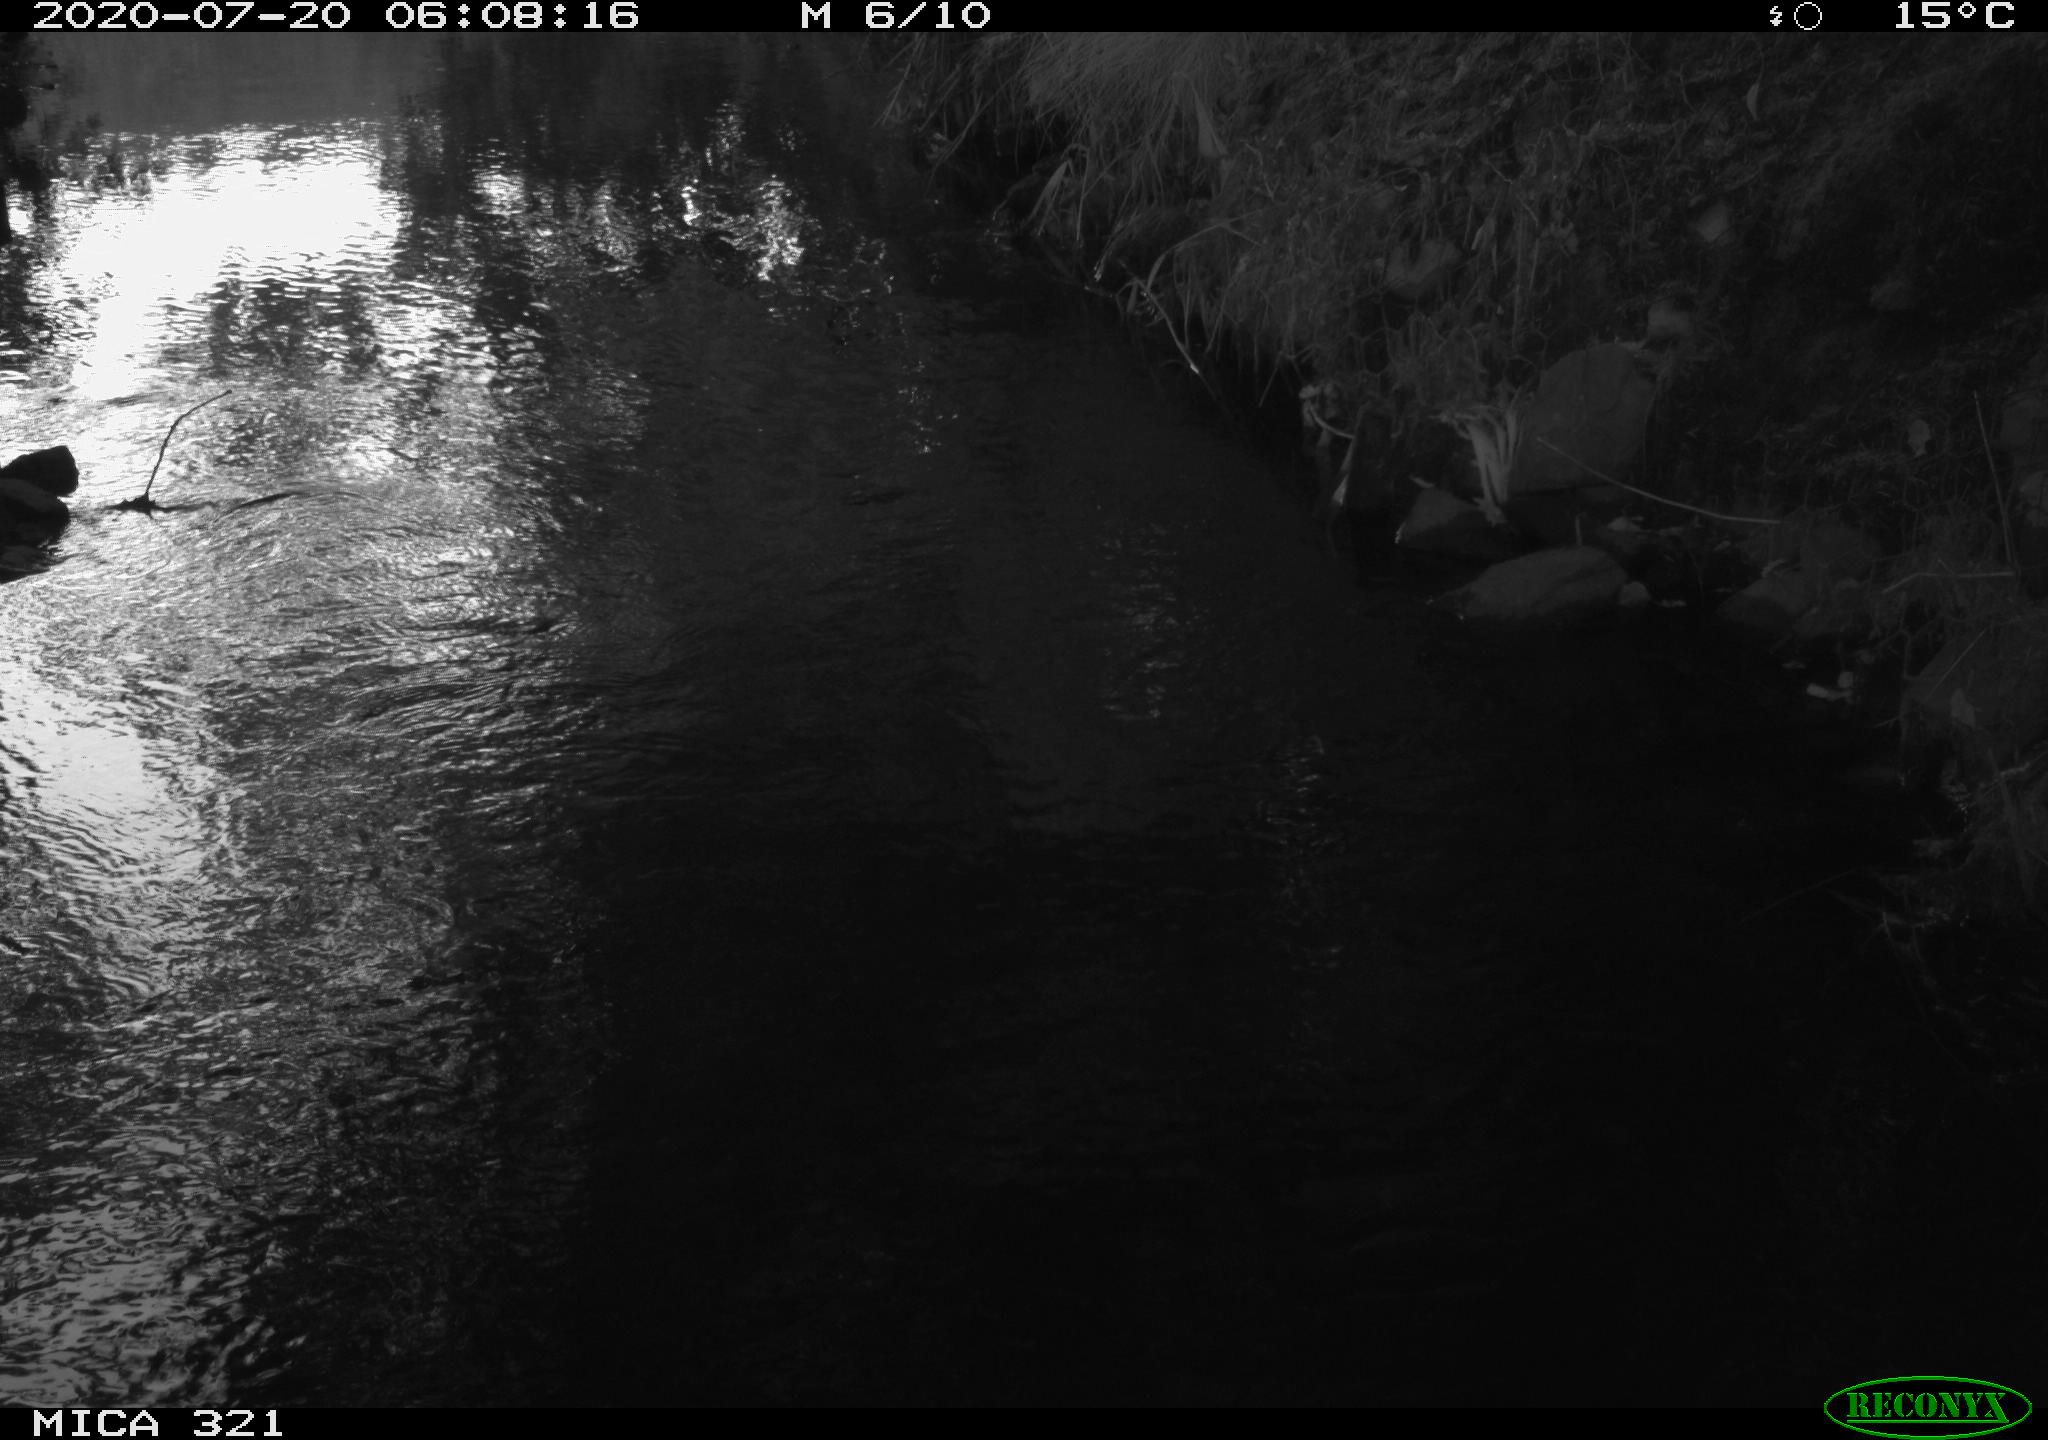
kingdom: Animalia
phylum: Chordata
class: Aves
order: Anseriformes
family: Anatidae
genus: Anas
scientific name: Anas platyrhynchos
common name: Mallard
